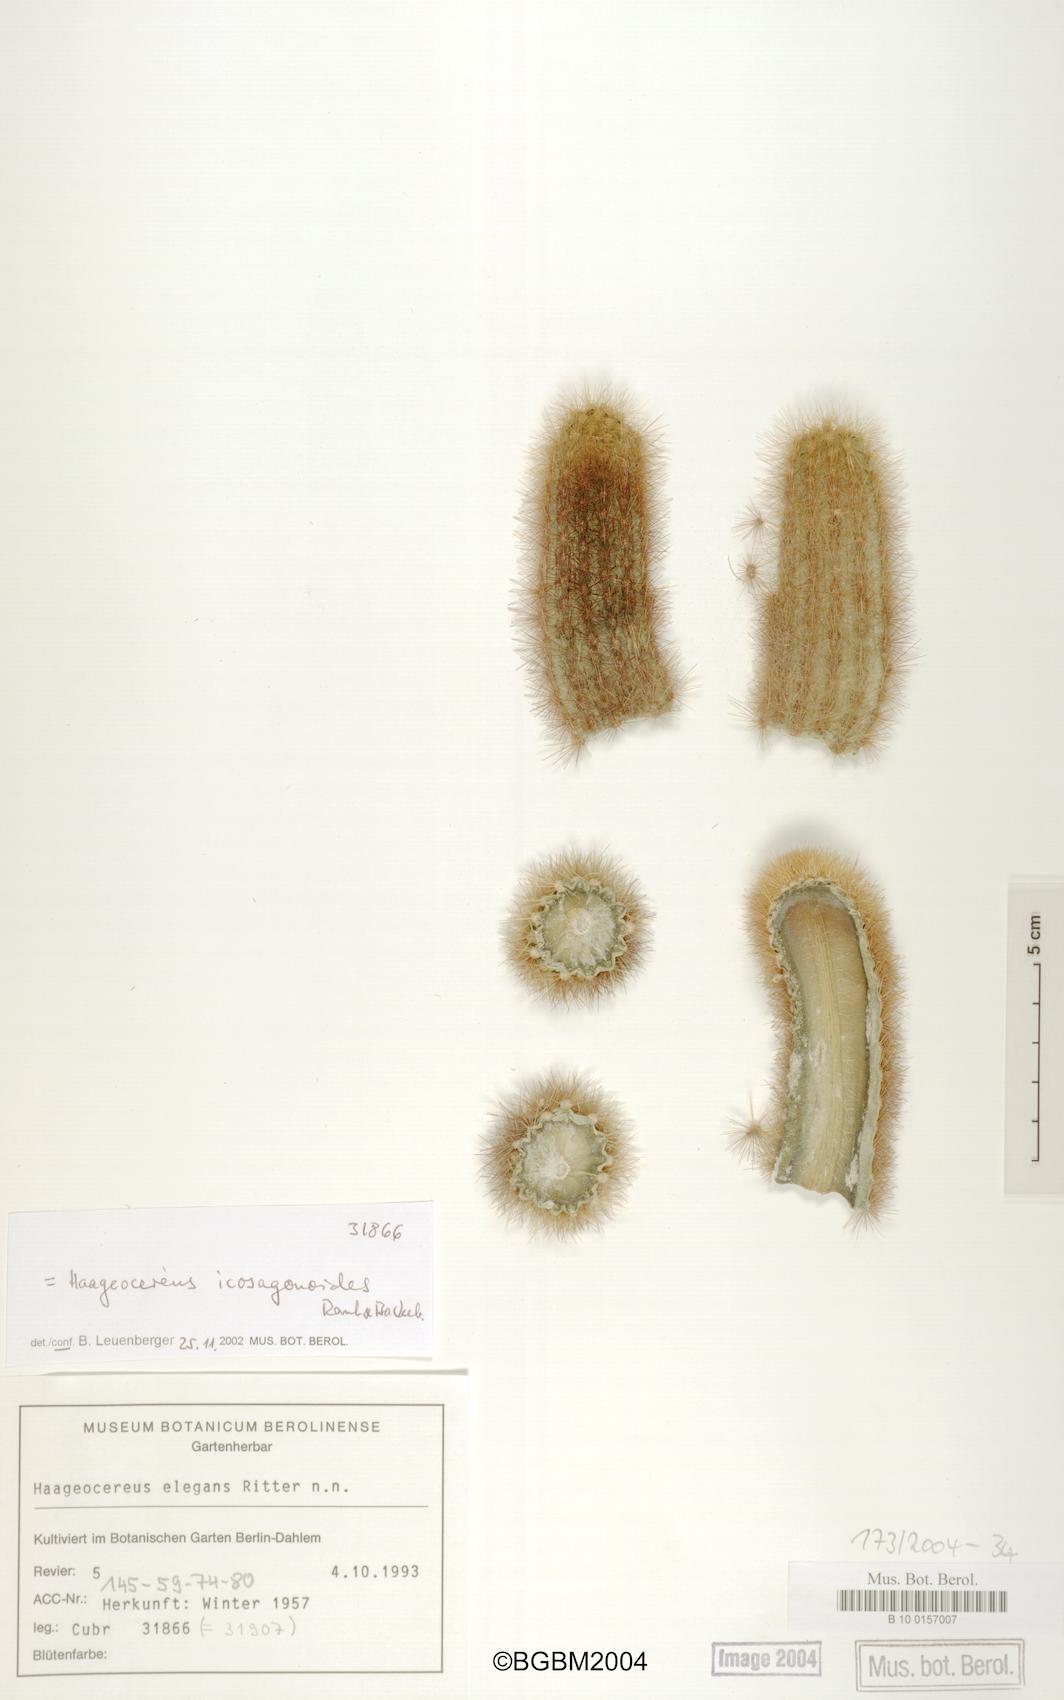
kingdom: Plantae
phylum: Tracheophyta
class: Magnoliopsida
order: Caryophyllales
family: Cactaceae
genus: Haageocereus
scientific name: Haageocereus versicolor
